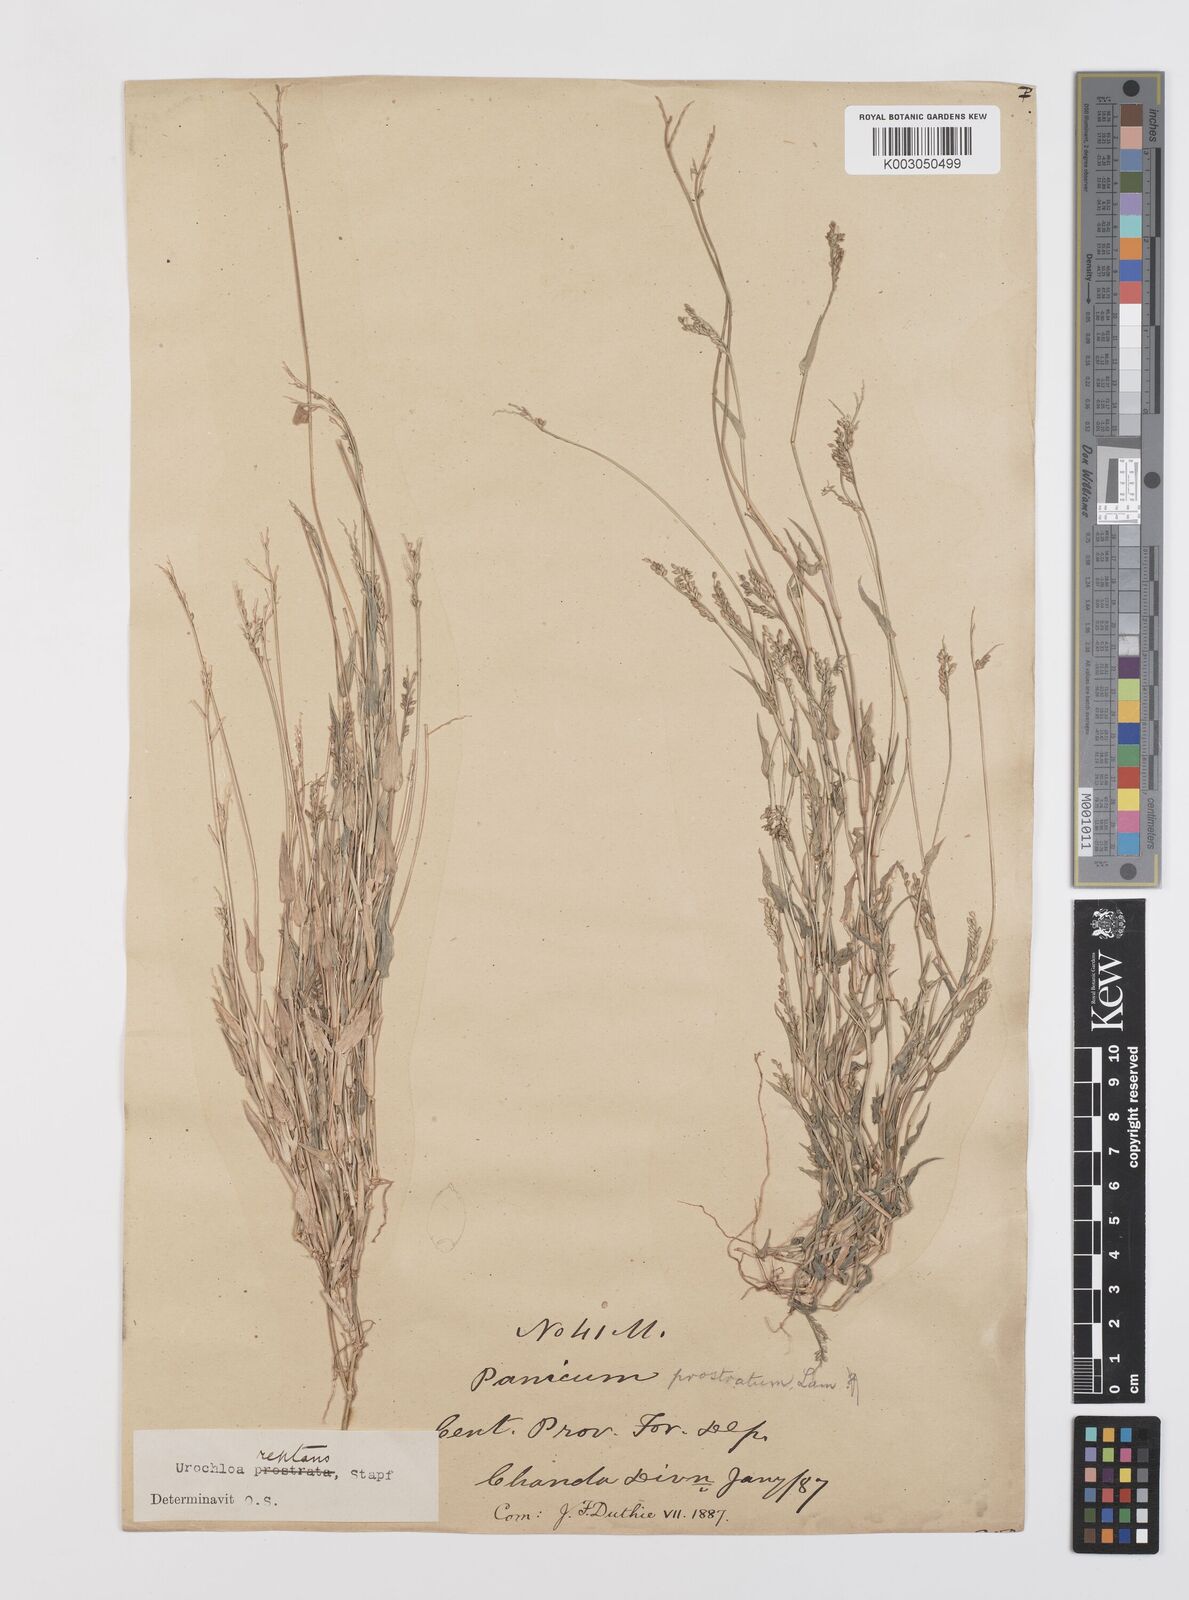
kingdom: Plantae
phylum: Tracheophyta
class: Liliopsida
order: Poales
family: Poaceae
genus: Urochloa
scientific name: Urochloa reptans
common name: Sprawling signalgrass
